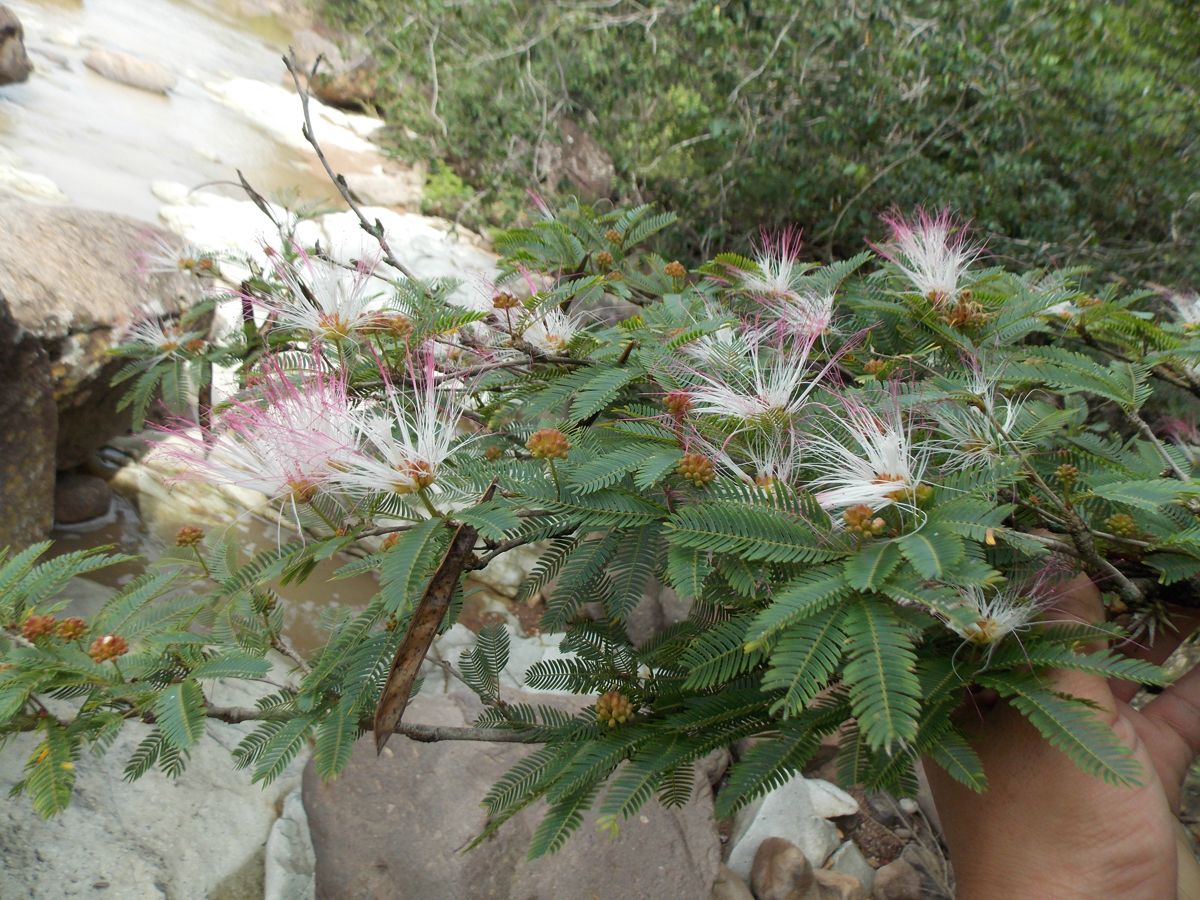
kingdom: Plantae
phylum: Tracheophyta
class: Magnoliopsida
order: Fabales
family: Fabaceae
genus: Calliandra
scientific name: Calliandra caeciliae
